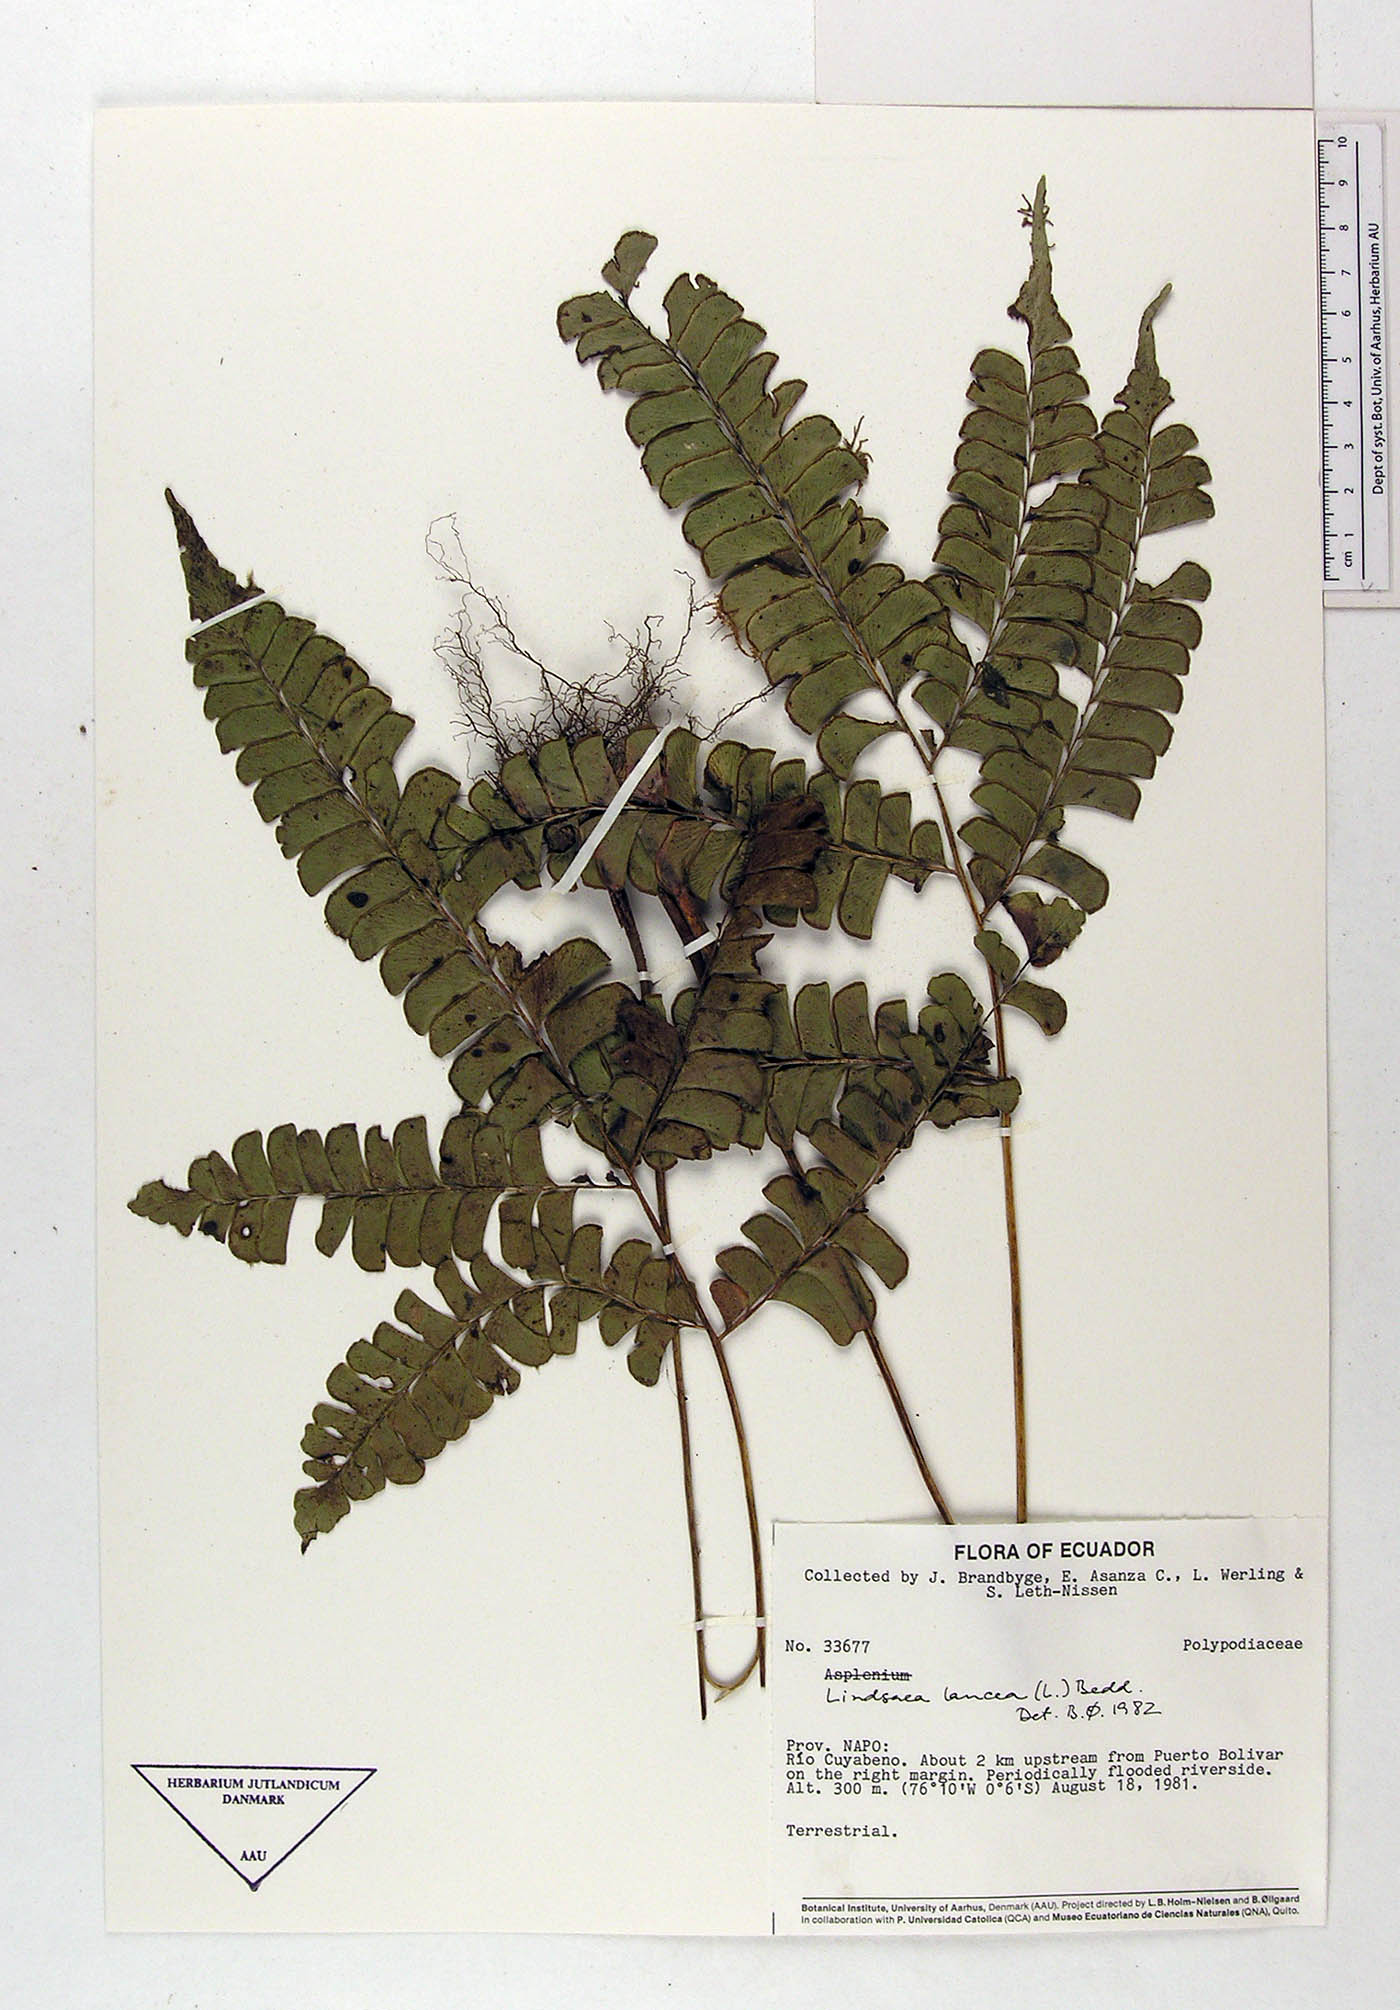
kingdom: Plantae
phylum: Tracheophyta
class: Polypodiopsida
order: Polypodiales
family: Dennstaedtiaceae
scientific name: Dennstaedtiaceae
